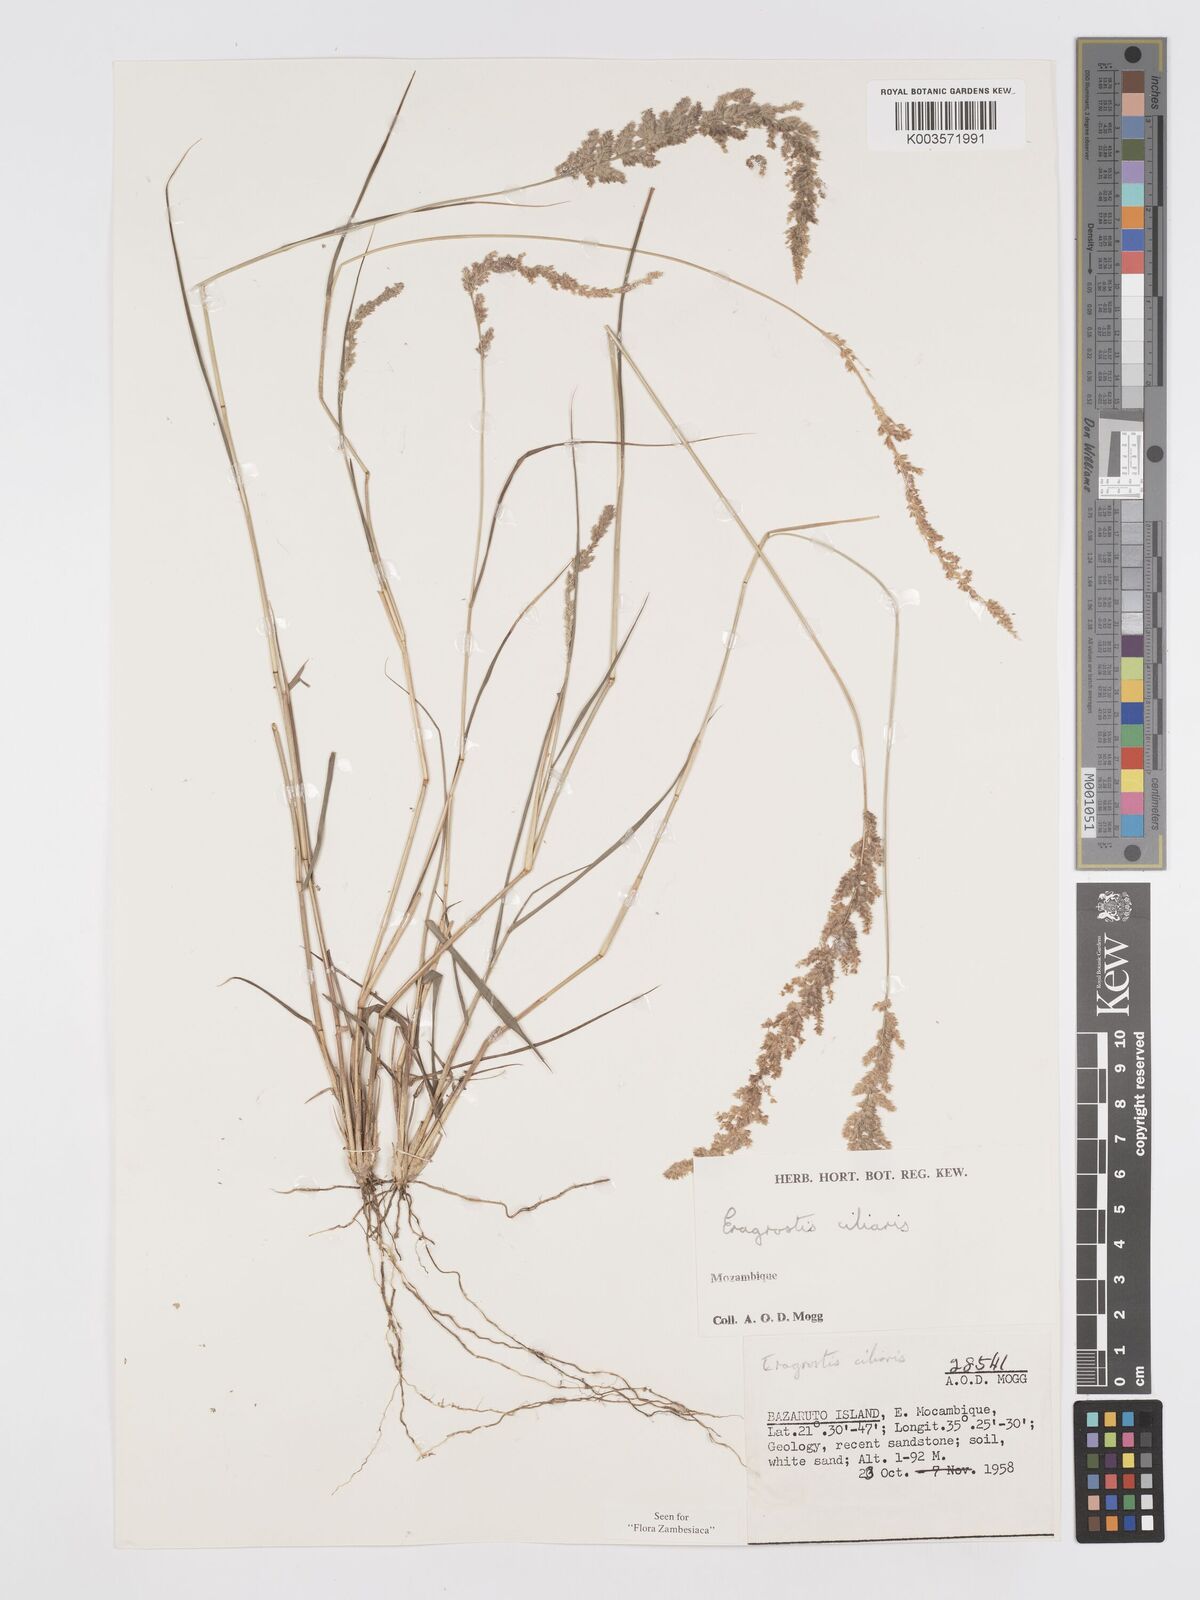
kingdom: Plantae
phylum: Tracheophyta
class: Liliopsida
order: Poales
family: Poaceae
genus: Eragrostis
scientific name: Eragrostis ciliaris
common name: Gophertail lovegrass
